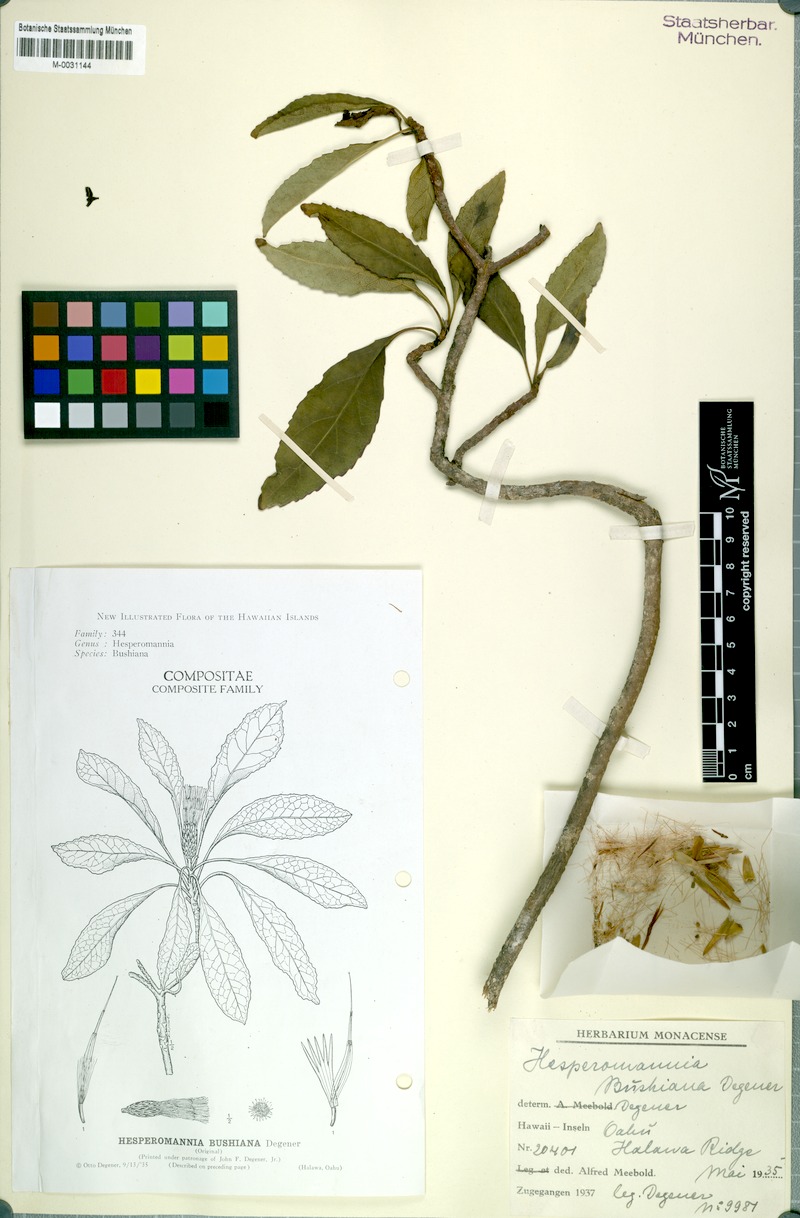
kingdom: Plantae
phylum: Tracheophyta
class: Magnoliopsida
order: Asterales
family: Asteraceae
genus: Hesperomannia
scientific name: Hesperomannia arborescens
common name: Lanai hesperomannia
